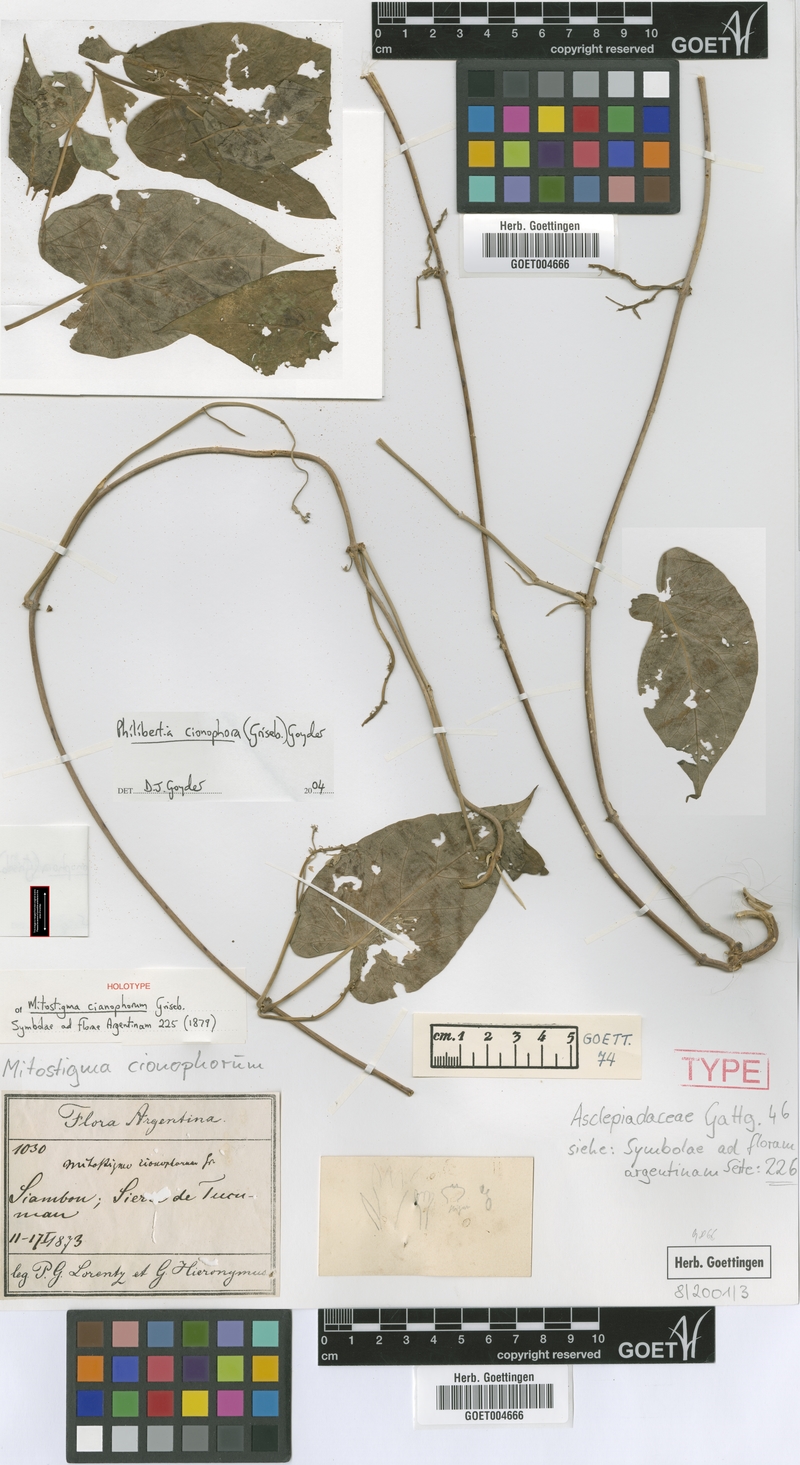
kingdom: Plantae
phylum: Tracheophyta
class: Magnoliopsida
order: Gentianales
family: Apocynaceae
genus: Philibertia
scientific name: Philibertia cionophora
